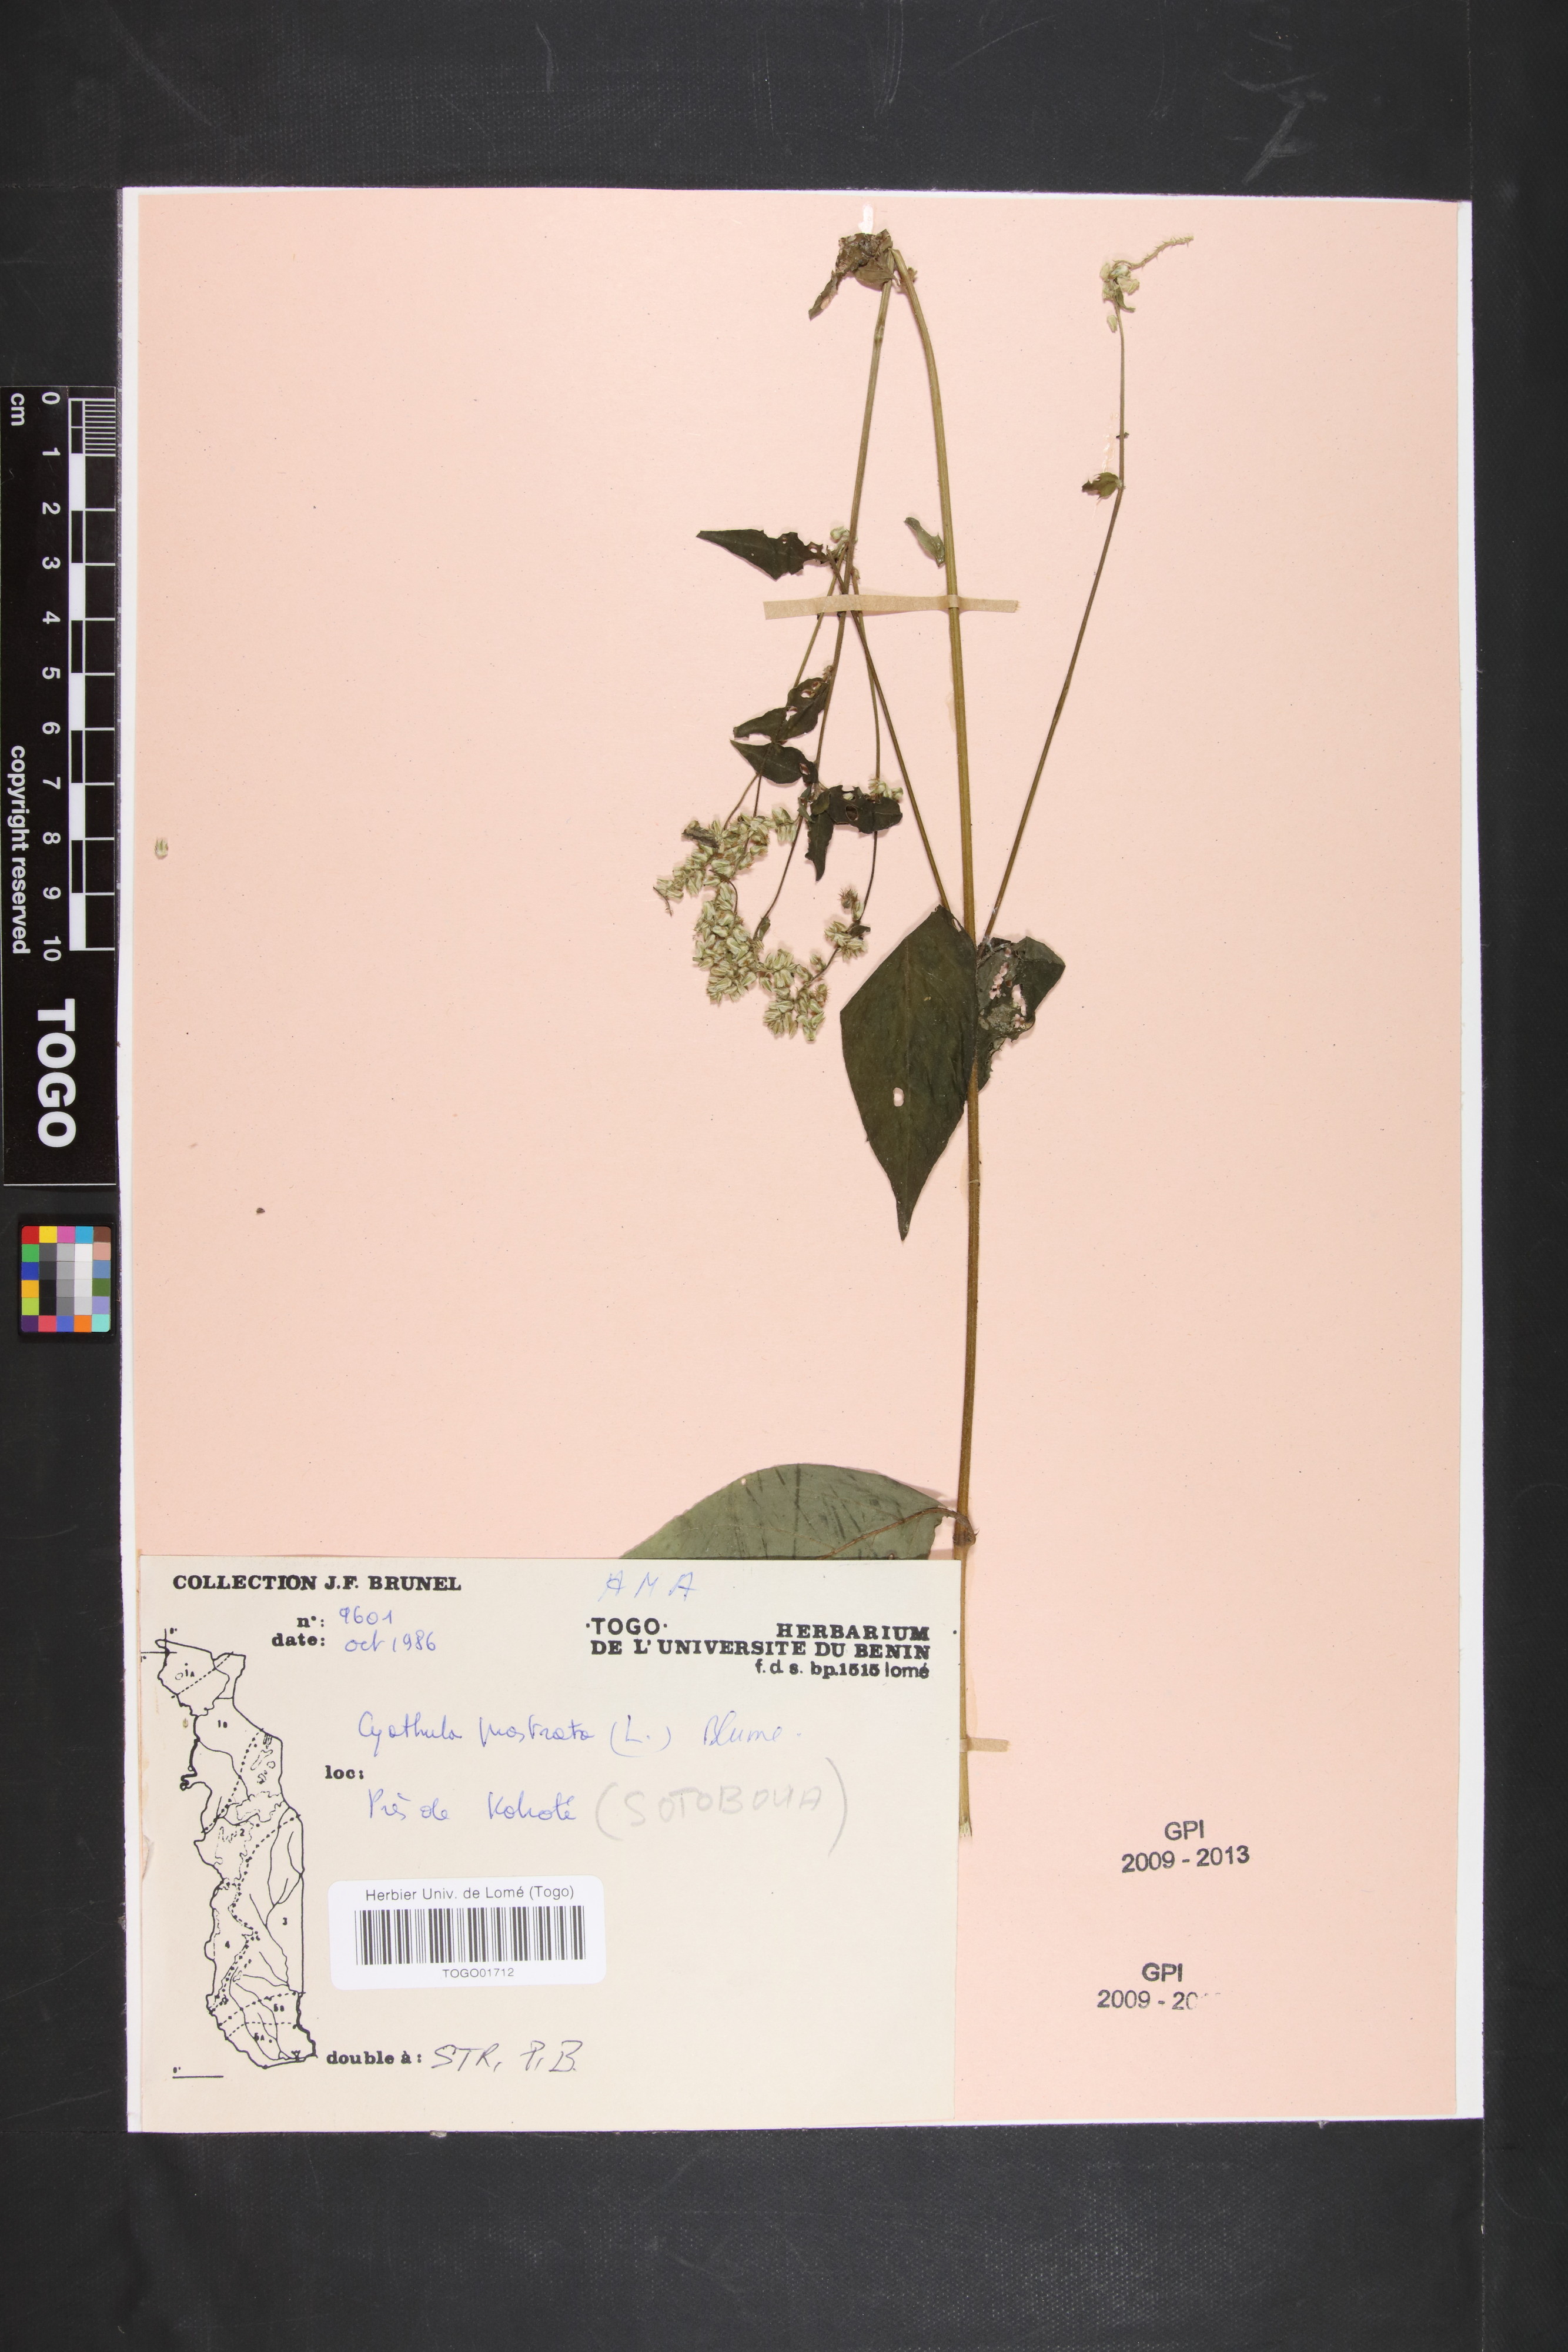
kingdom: Plantae
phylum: Tracheophyta
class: Magnoliopsida
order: Caryophyllales
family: Amaranthaceae
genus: Cyathula
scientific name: Cyathula prostrata
